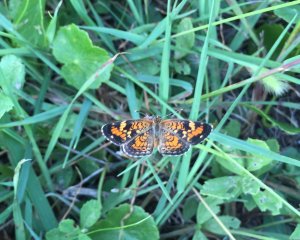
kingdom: Animalia
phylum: Arthropoda
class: Insecta
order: Lepidoptera
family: Nymphalidae
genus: Phyciodes
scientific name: Phyciodes phaon
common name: Phaon Crescent
